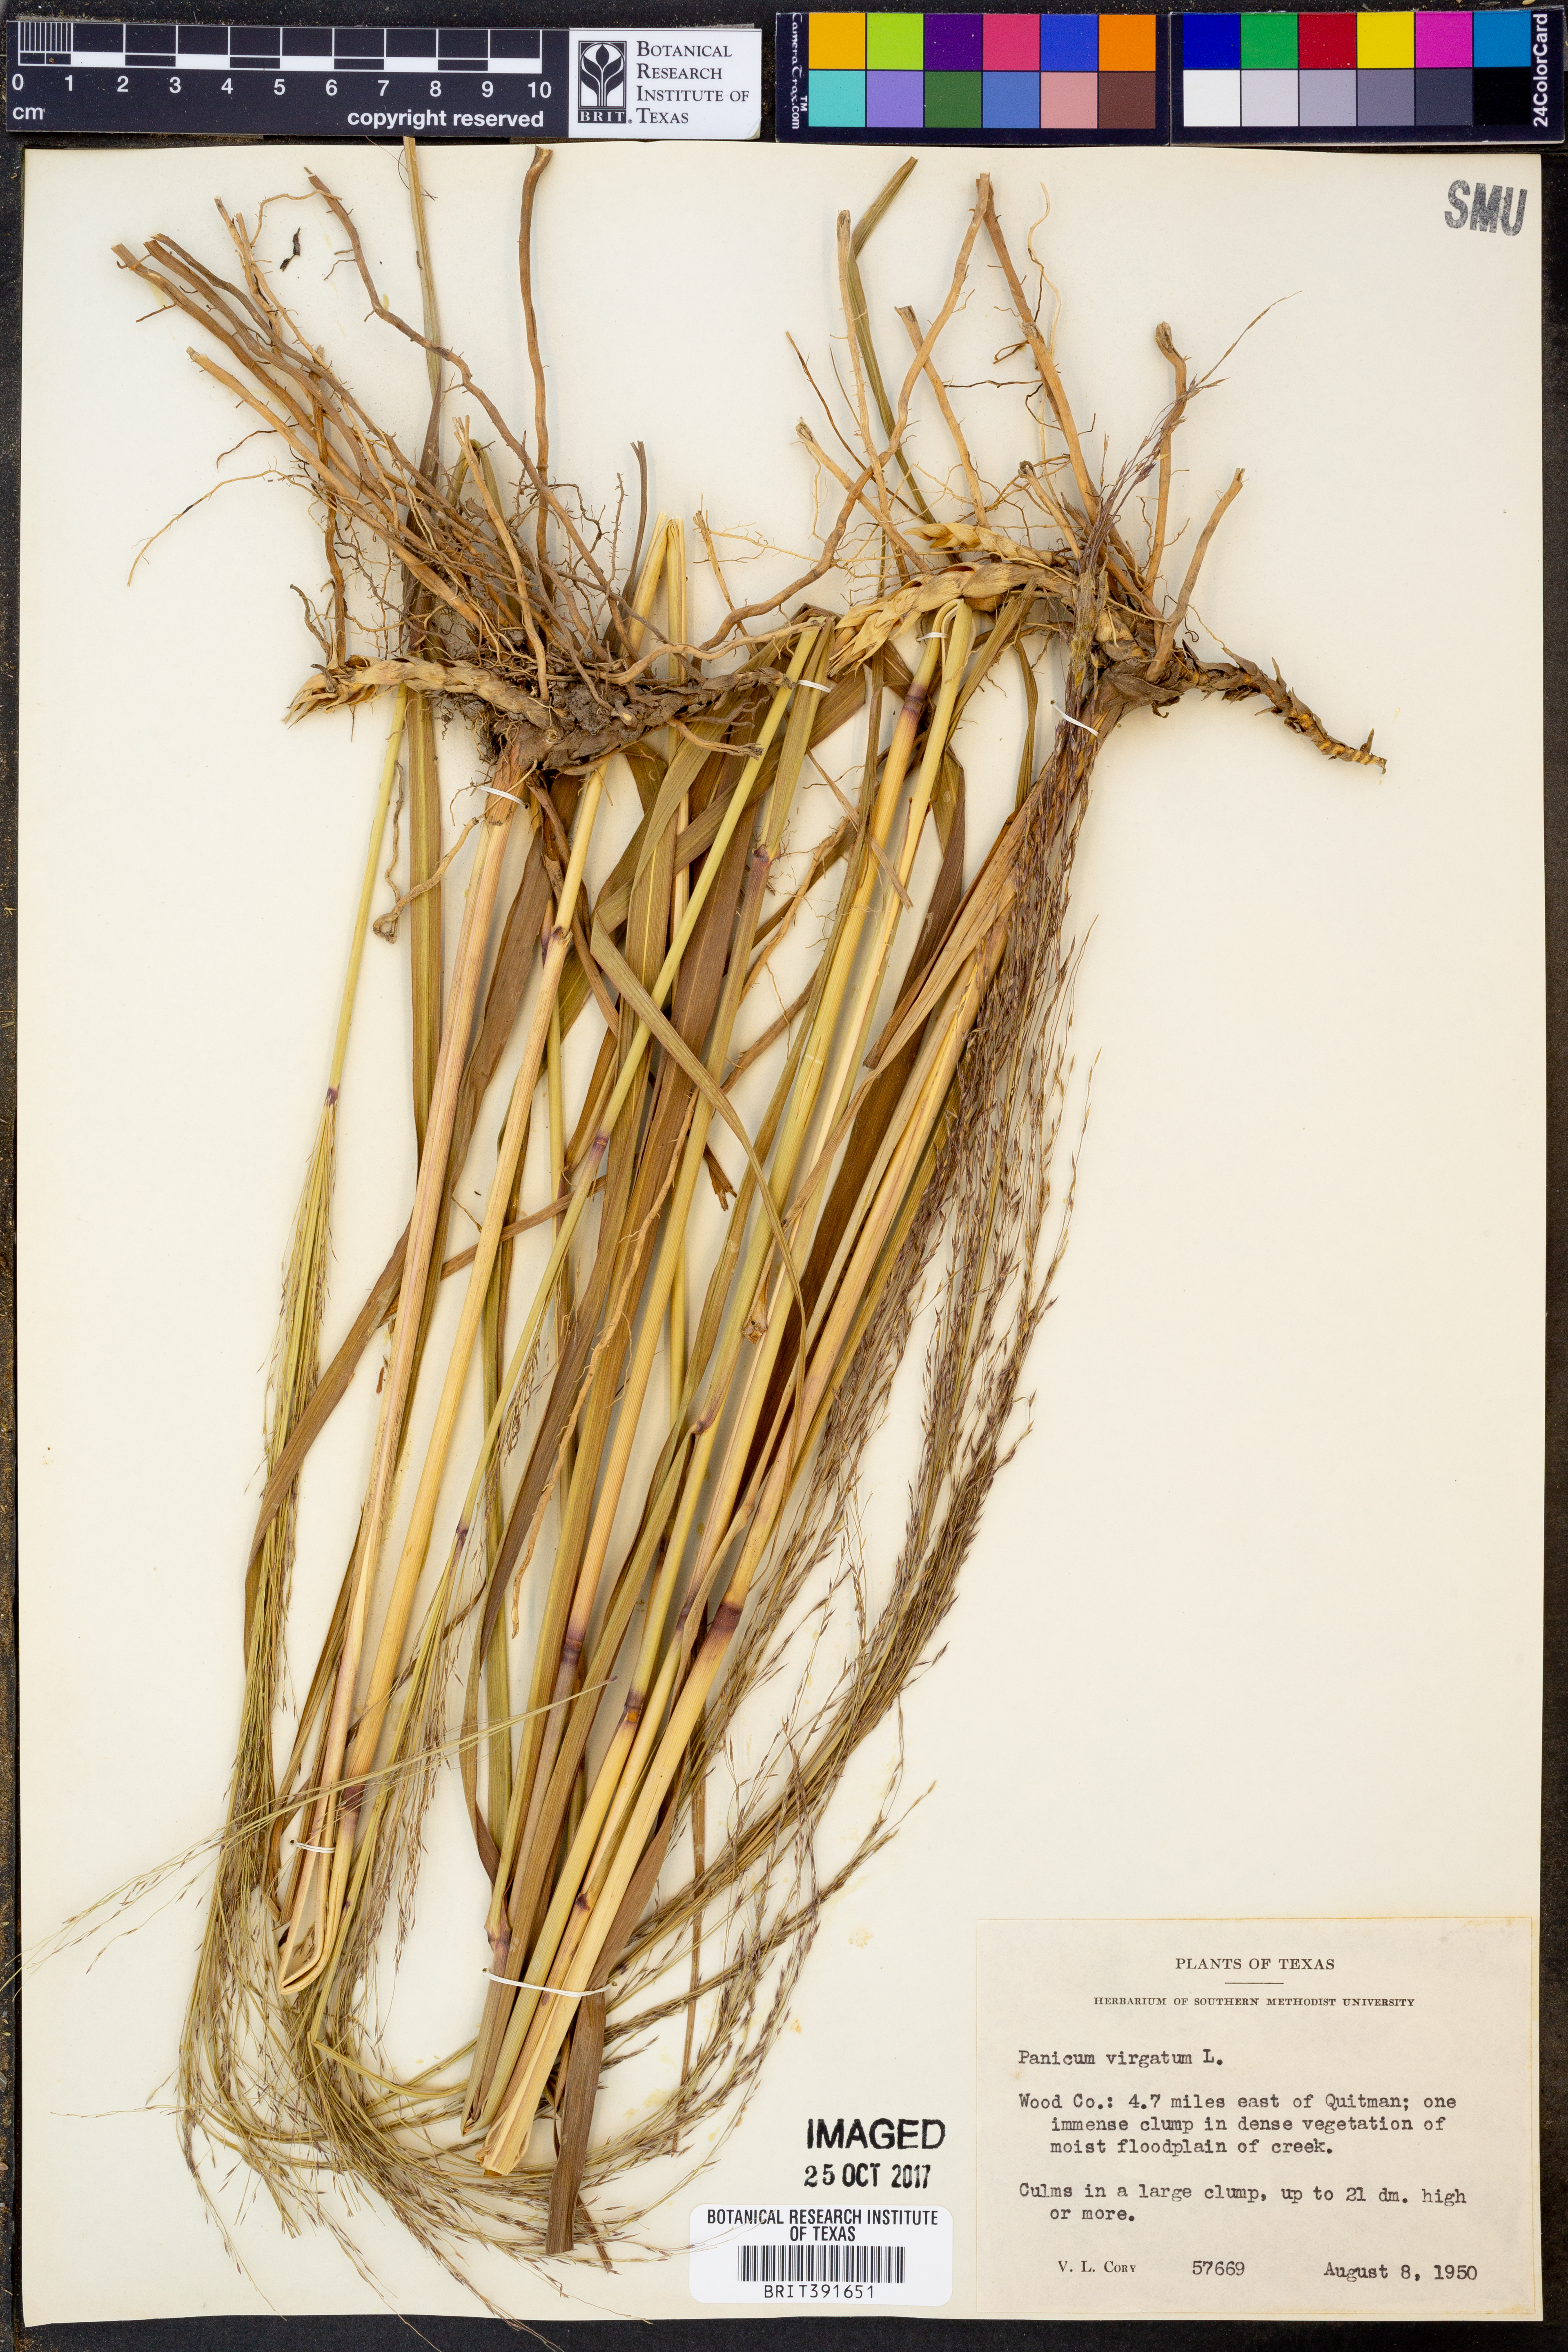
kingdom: Plantae
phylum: Tracheophyta
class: Liliopsida
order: Poales
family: Poaceae
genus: Panicum
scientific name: Panicum virgatum
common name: Switchgrass
